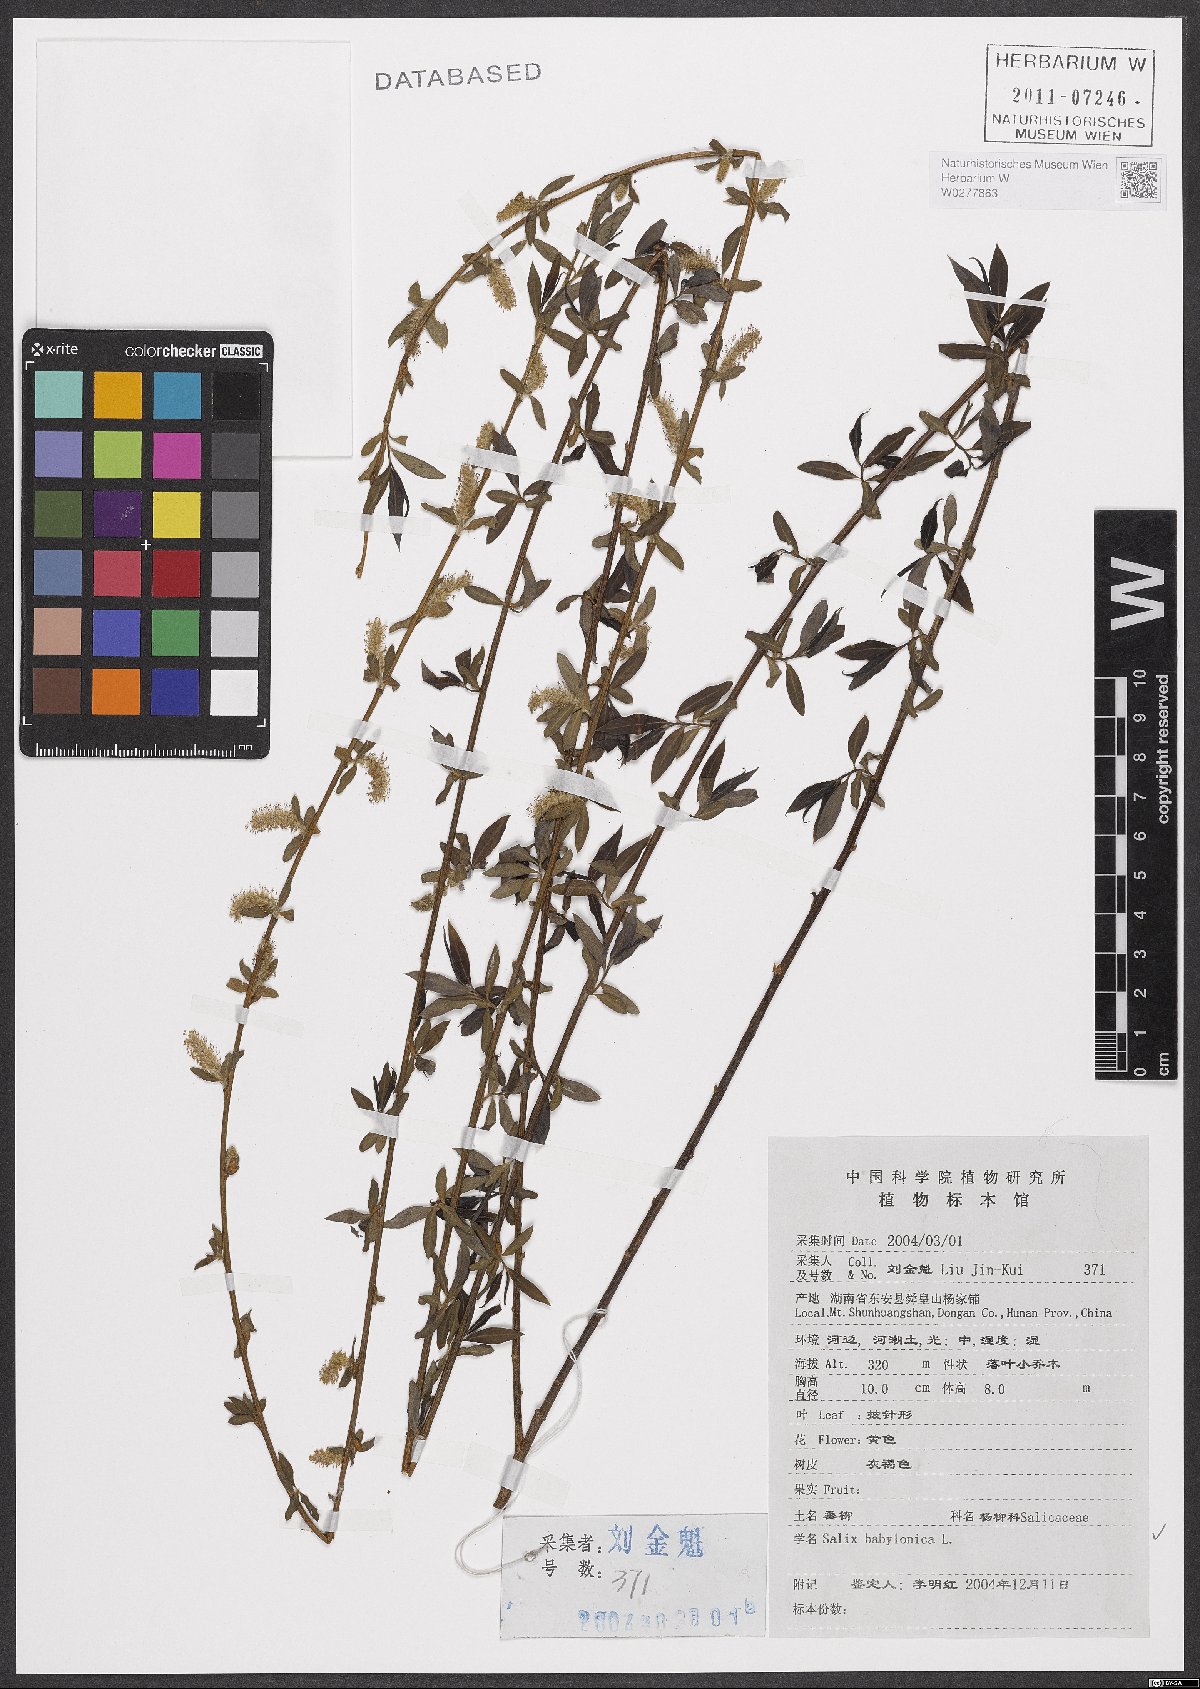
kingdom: Plantae
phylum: Tracheophyta
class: Magnoliopsida
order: Malpighiales
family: Salicaceae
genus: Salix
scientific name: Salix babylonica
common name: Weeping willow
